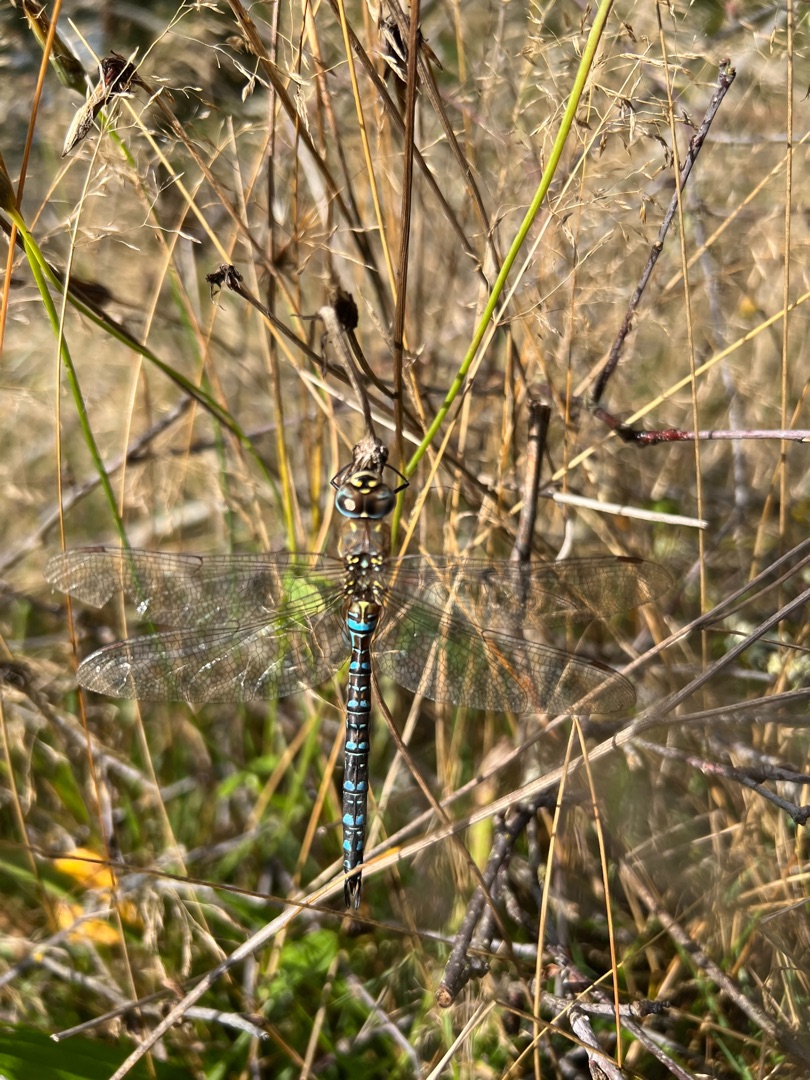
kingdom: Animalia
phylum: Arthropoda
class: Insecta
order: Odonata
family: Aeshnidae
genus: Aeshna
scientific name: Aeshna mixta
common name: Efterårs-mosaikguldsmed
